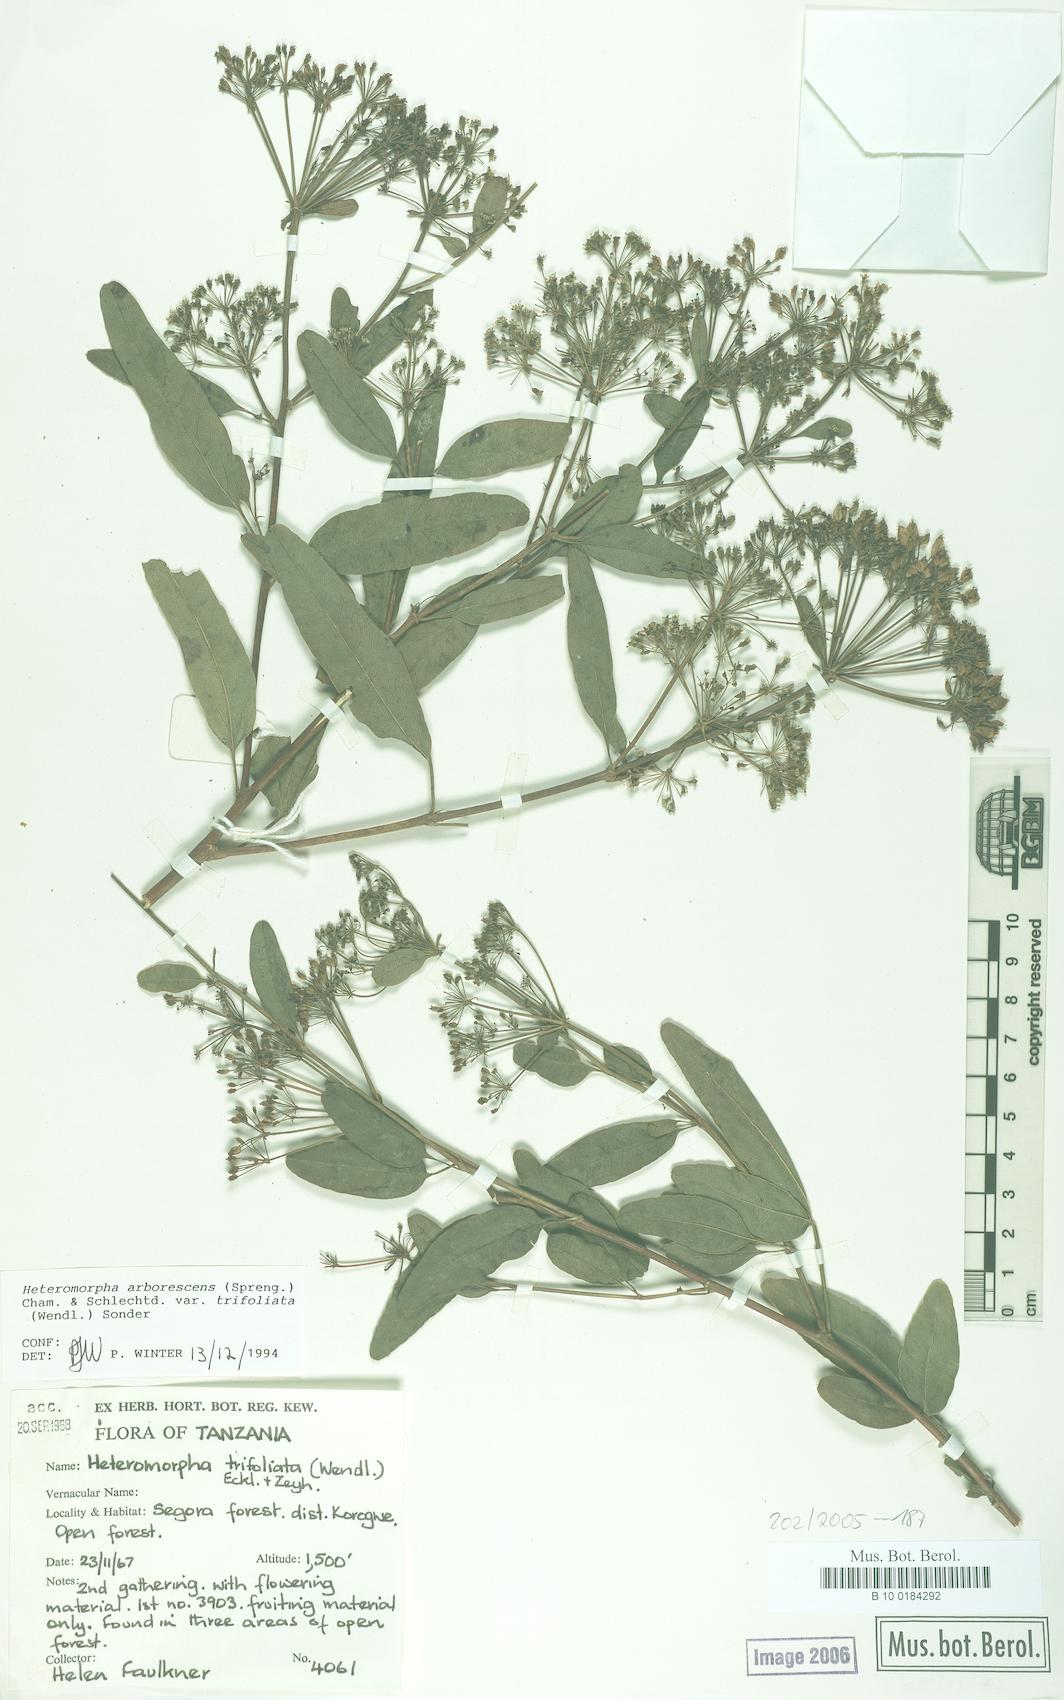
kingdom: Plantae
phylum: Tracheophyta
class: Magnoliopsida
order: Apiales
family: Apiaceae
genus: Heteromorpha
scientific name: Heteromorpha arborescens
